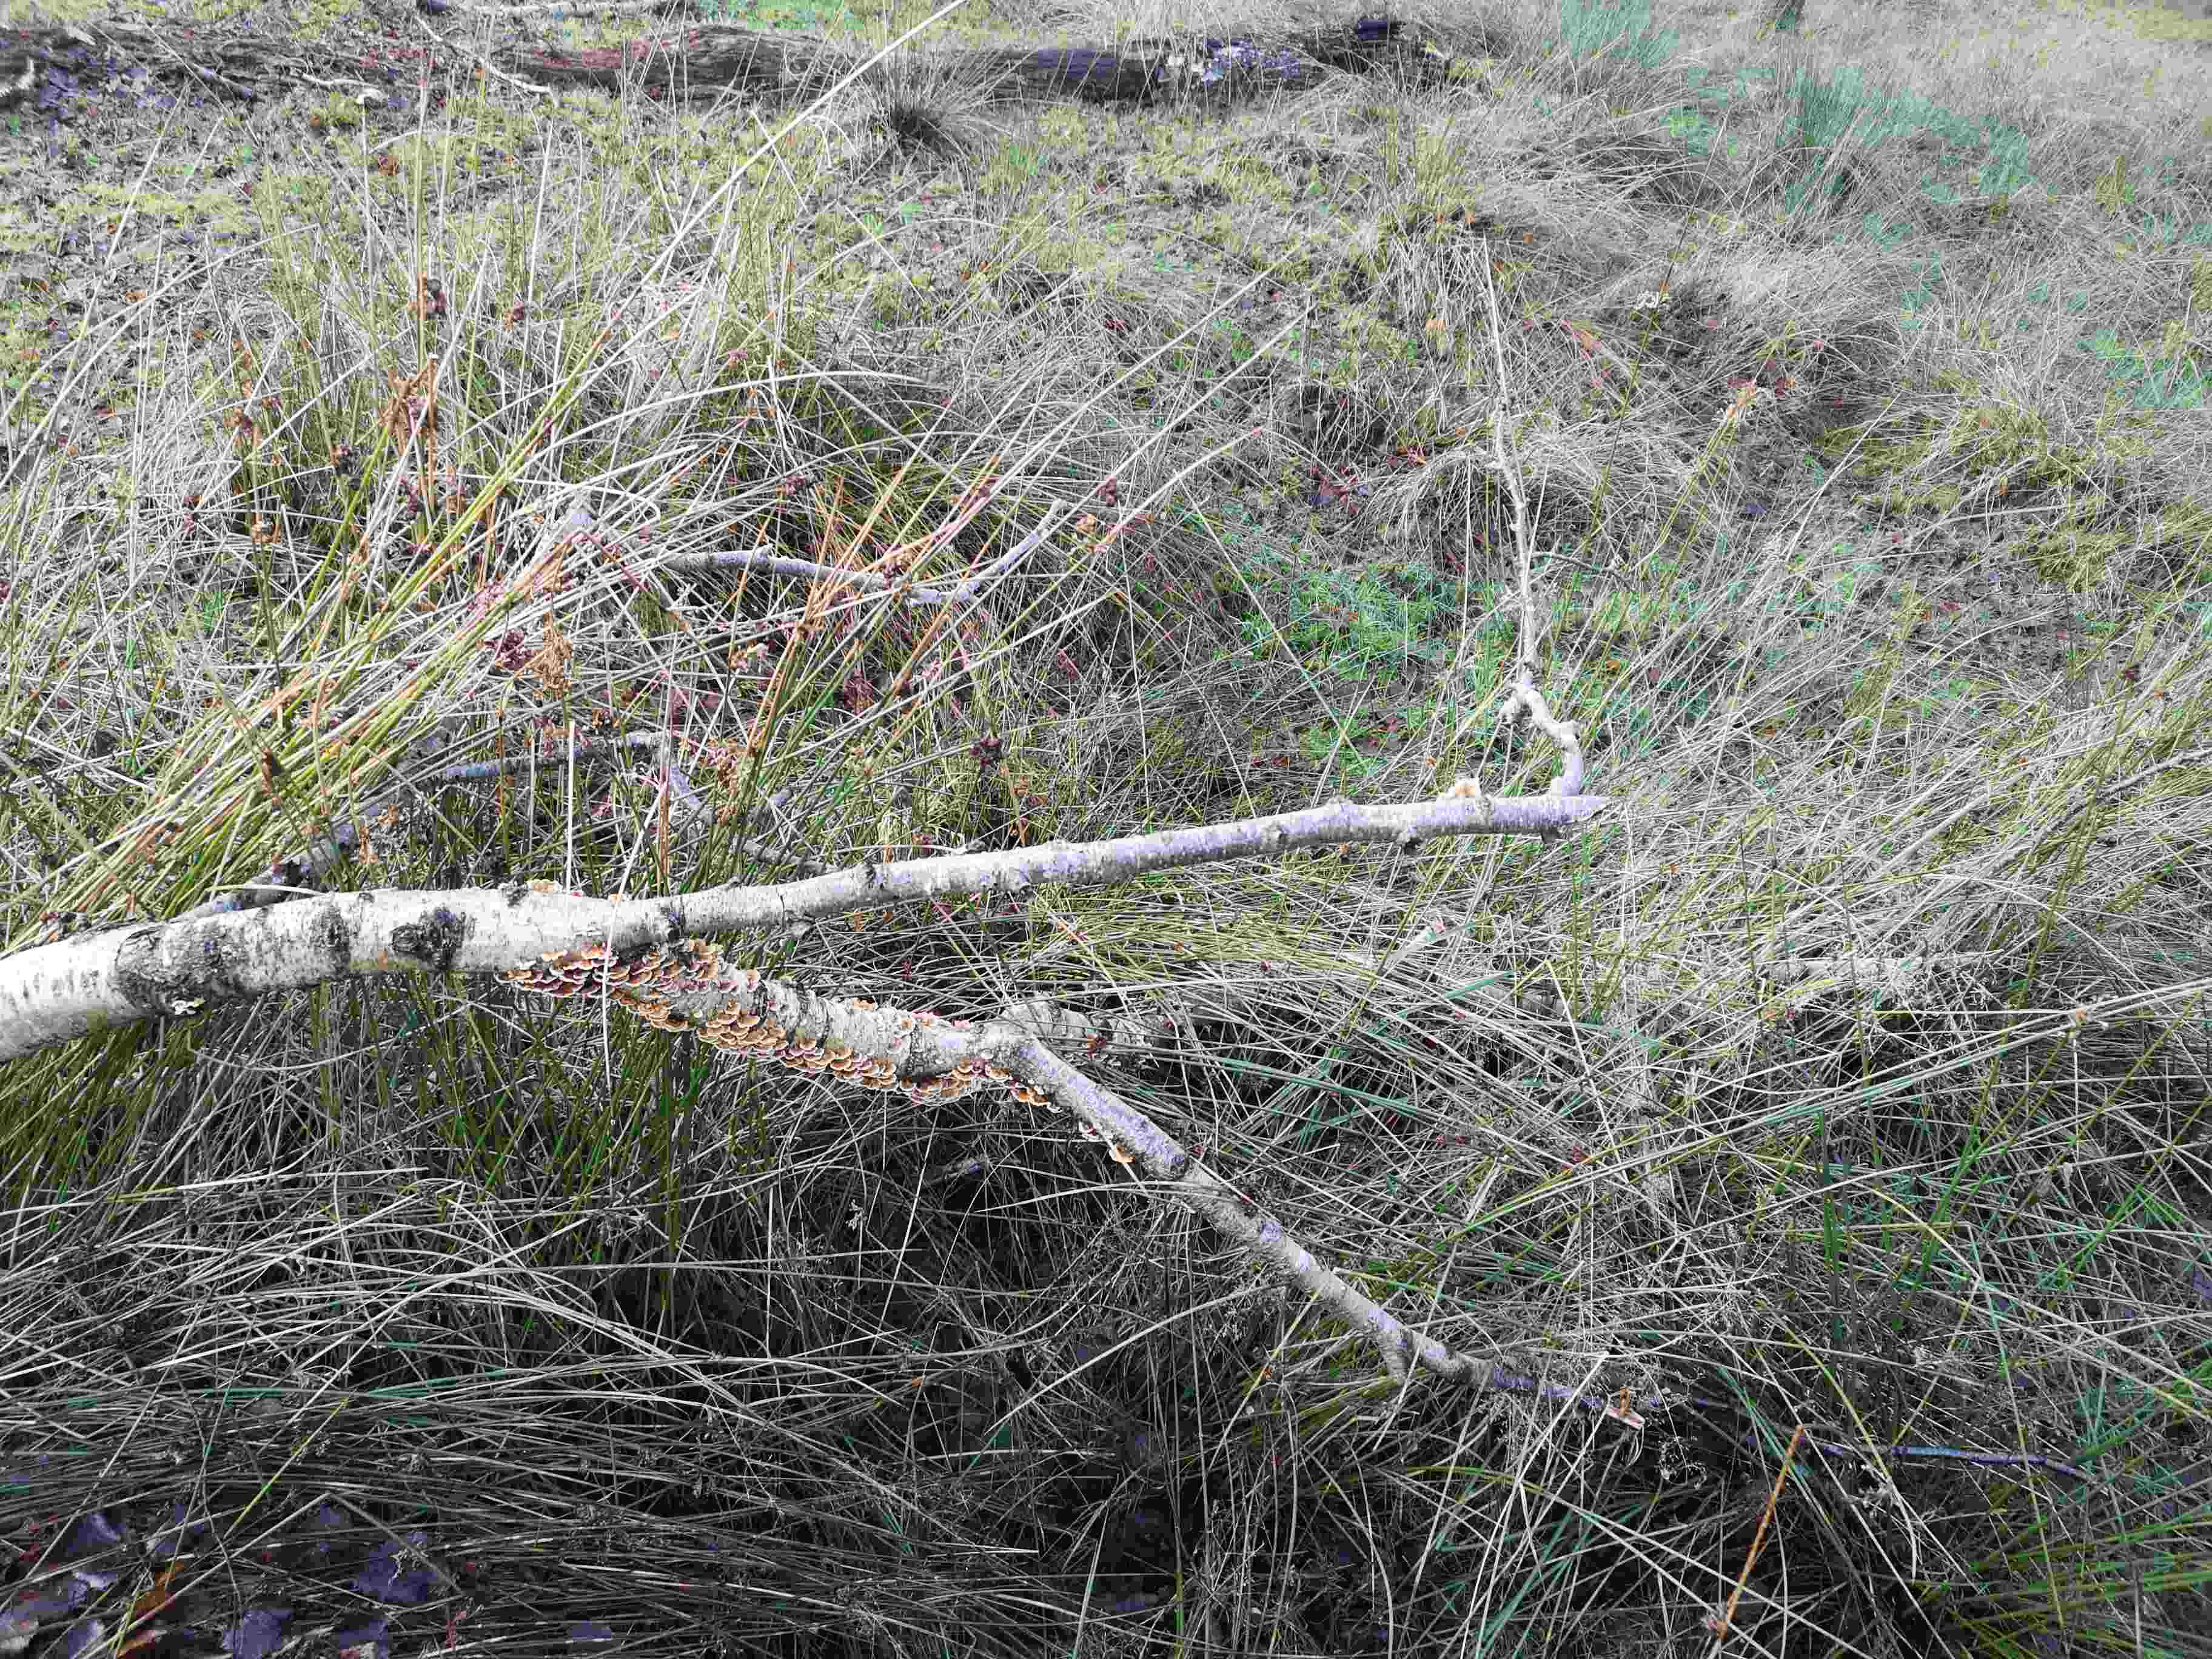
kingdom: Fungi
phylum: Basidiomycota
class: Agaricomycetes
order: Agaricales
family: Typhulaceae
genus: Typhula
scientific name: Typhula fistulosa
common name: pibet rørkølle
